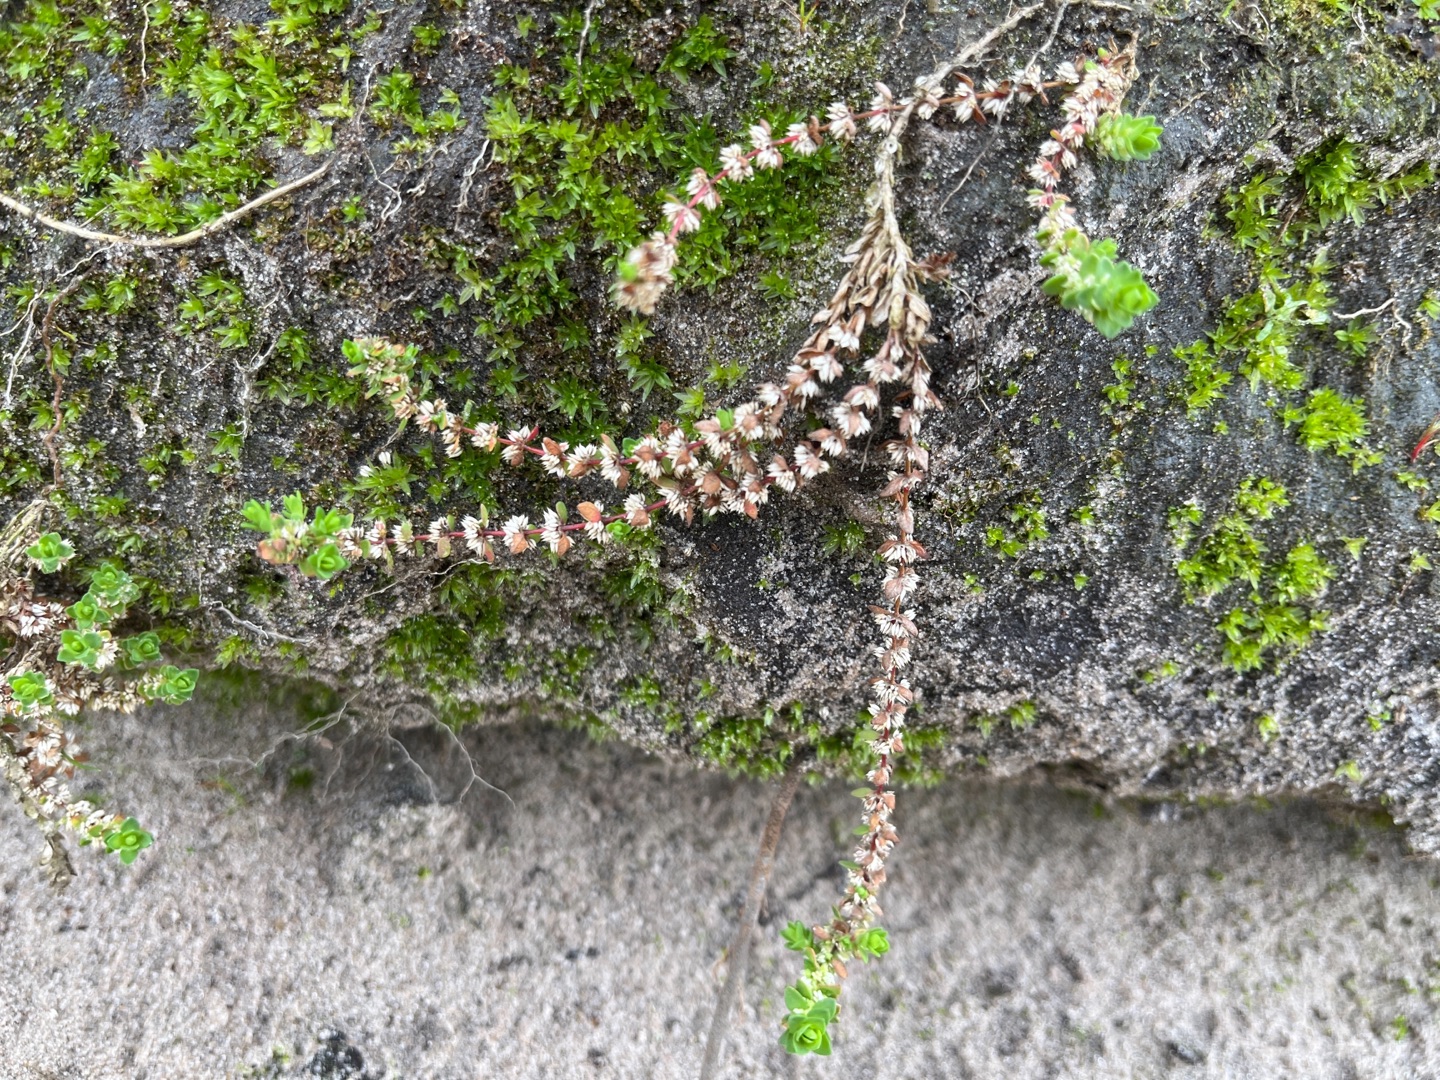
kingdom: Plantae
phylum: Tracheophyta
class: Magnoliopsida
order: Caryophyllales
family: Caryophyllaceae
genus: Illecebrum
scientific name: Illecebrum verticillatum
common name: Bruskbæger
